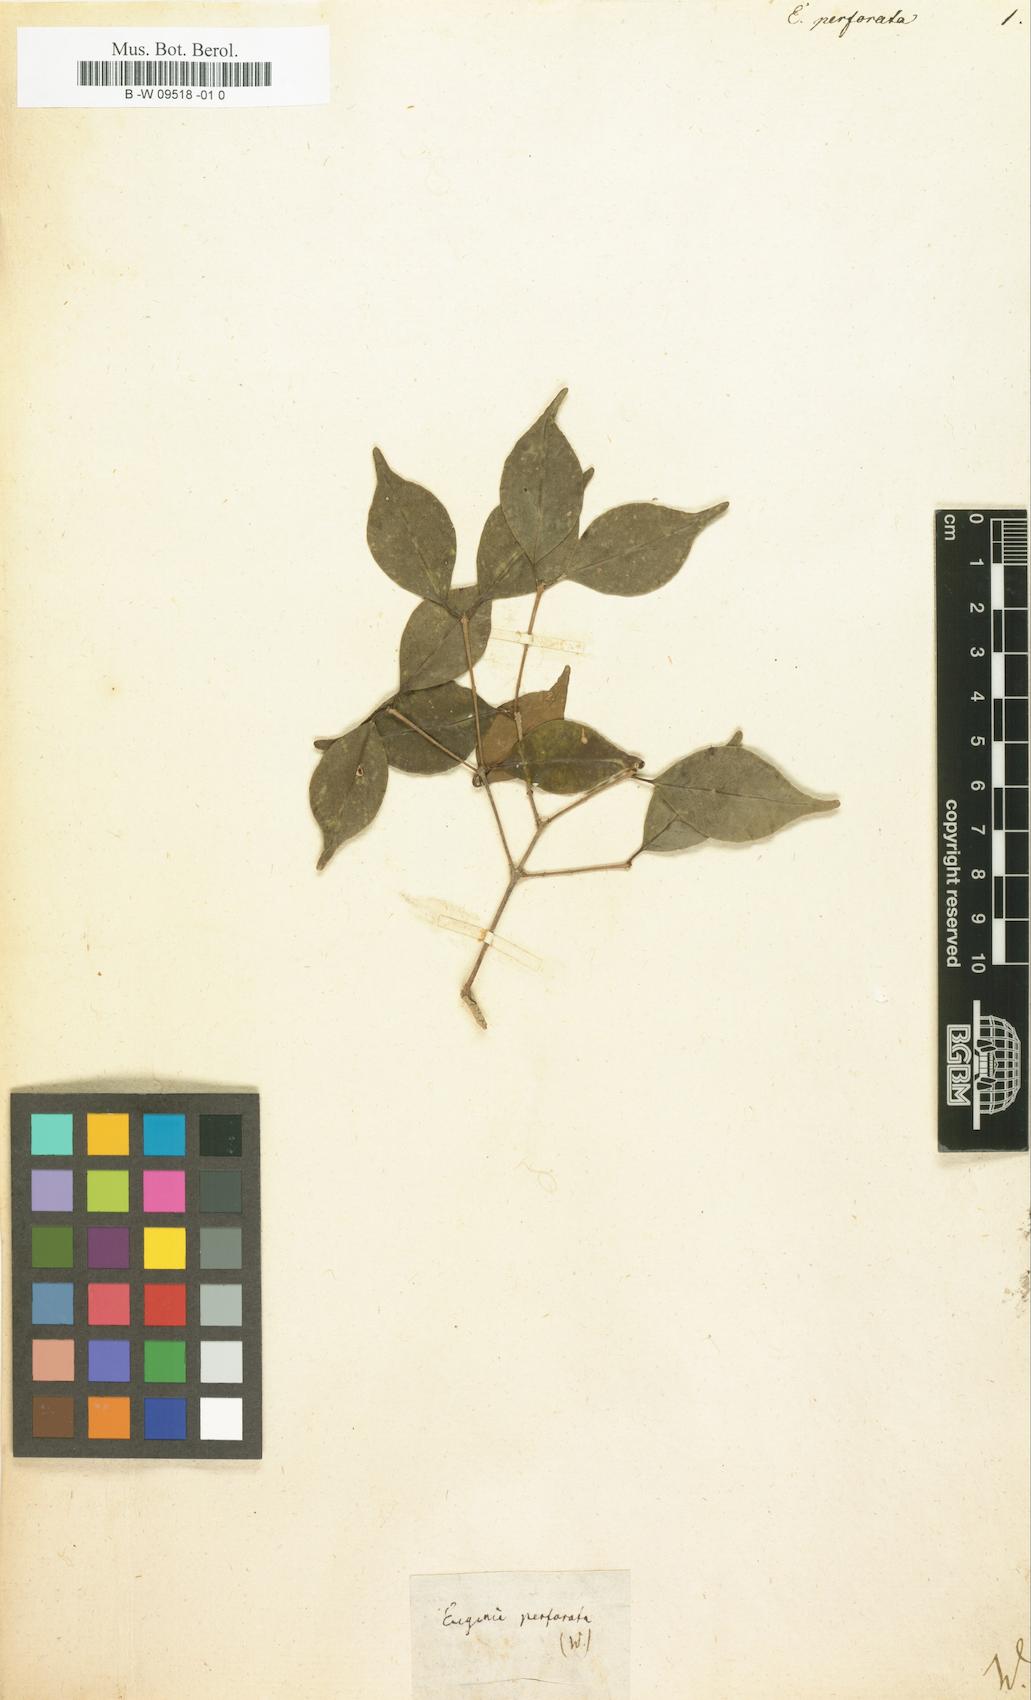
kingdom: Plantae
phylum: Tracheophyta
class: Magnoliopsida
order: Myrtales
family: Myrtaceae
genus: Eugenia
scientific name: Eugenia egensis
